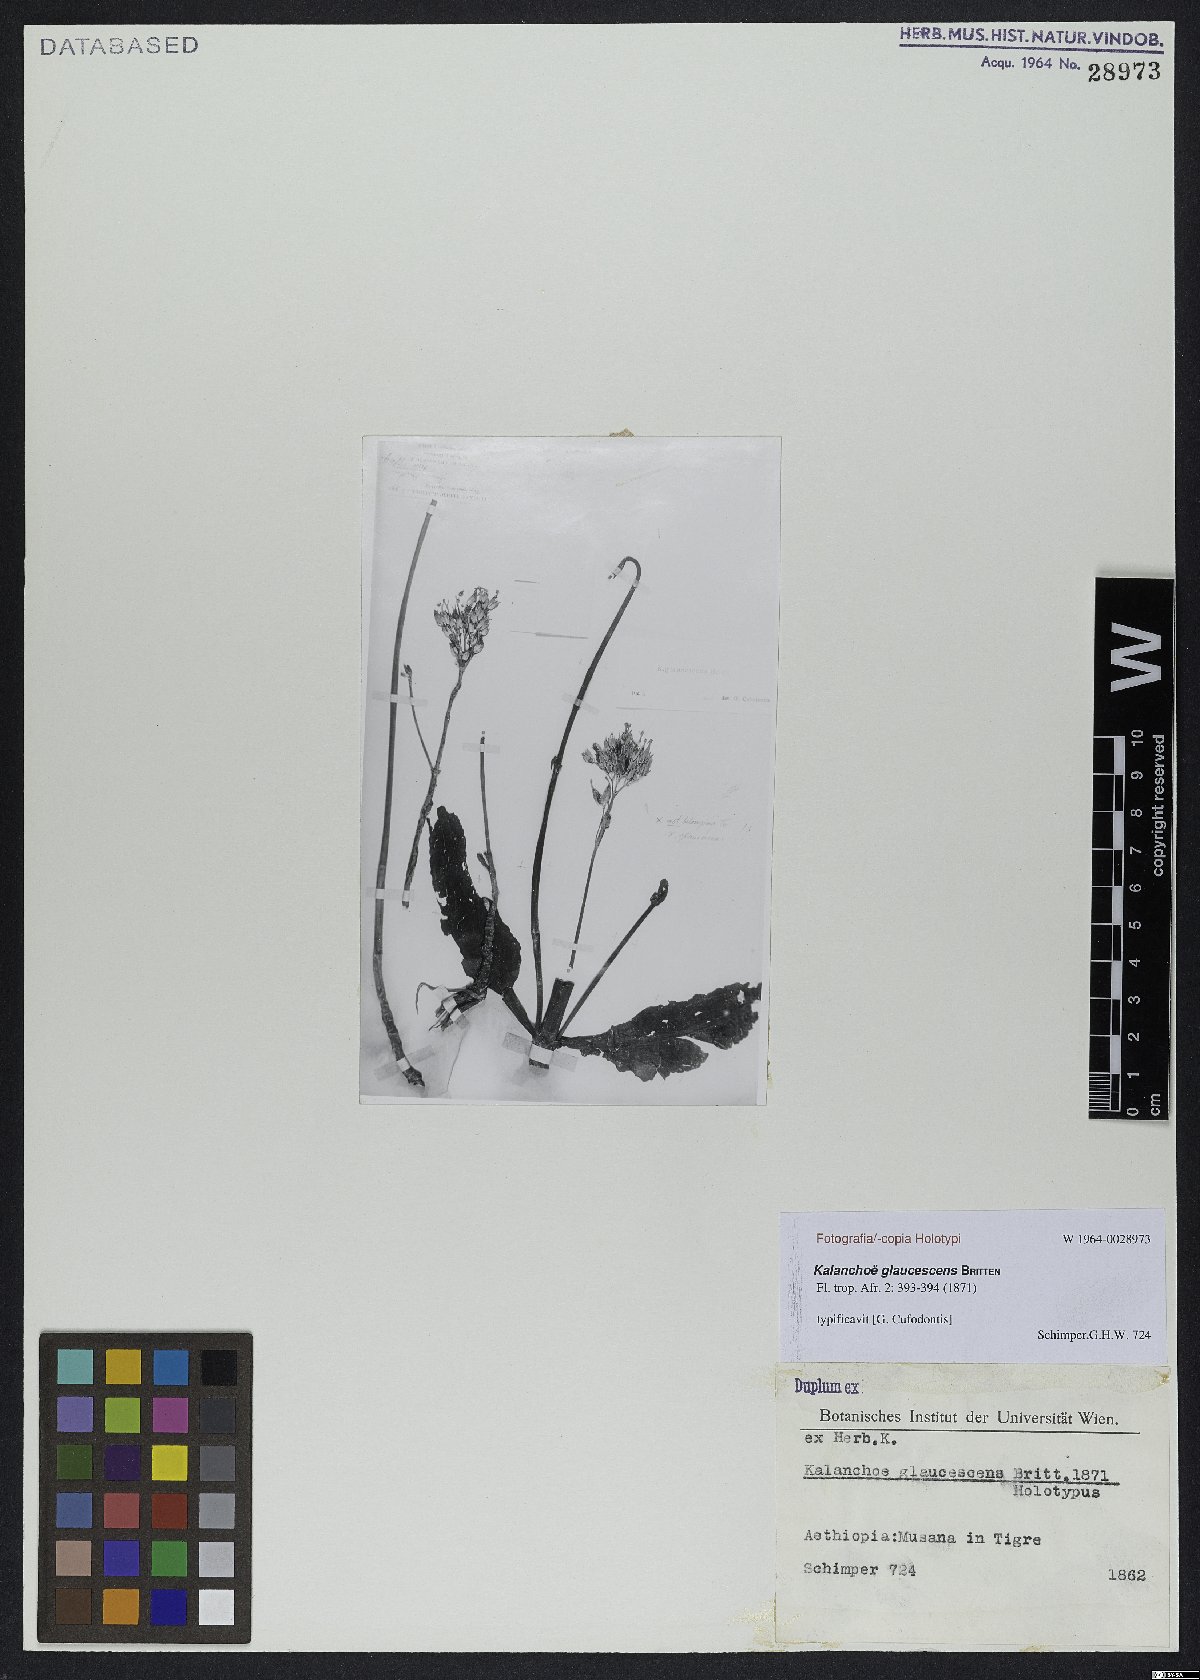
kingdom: Plantae
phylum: Tracheophyta
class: Magnoliopsida
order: Saxifragales
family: Crassulaceae
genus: Kalanchoe
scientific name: Kalanchoe glaucescens
